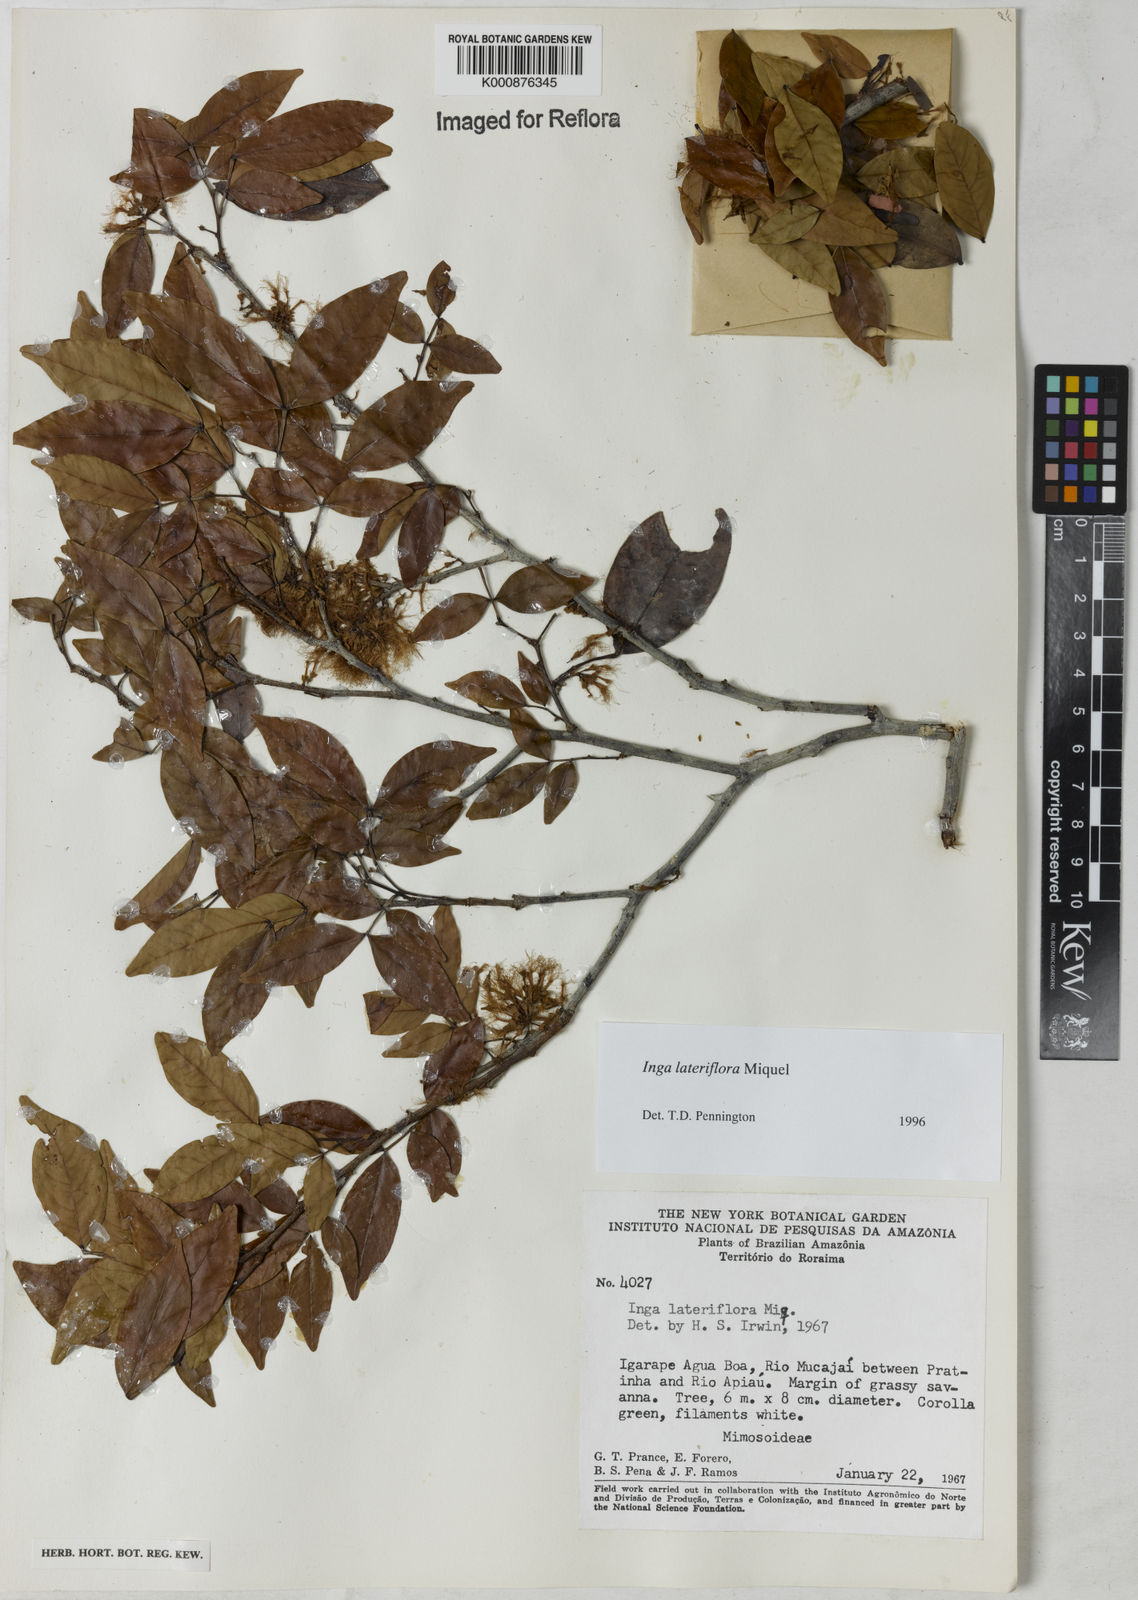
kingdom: Plantae
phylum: Tracheophyta
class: Magnoliopsida
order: Fabales
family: Fabaceae
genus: Inga
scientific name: Inga lateriflora
